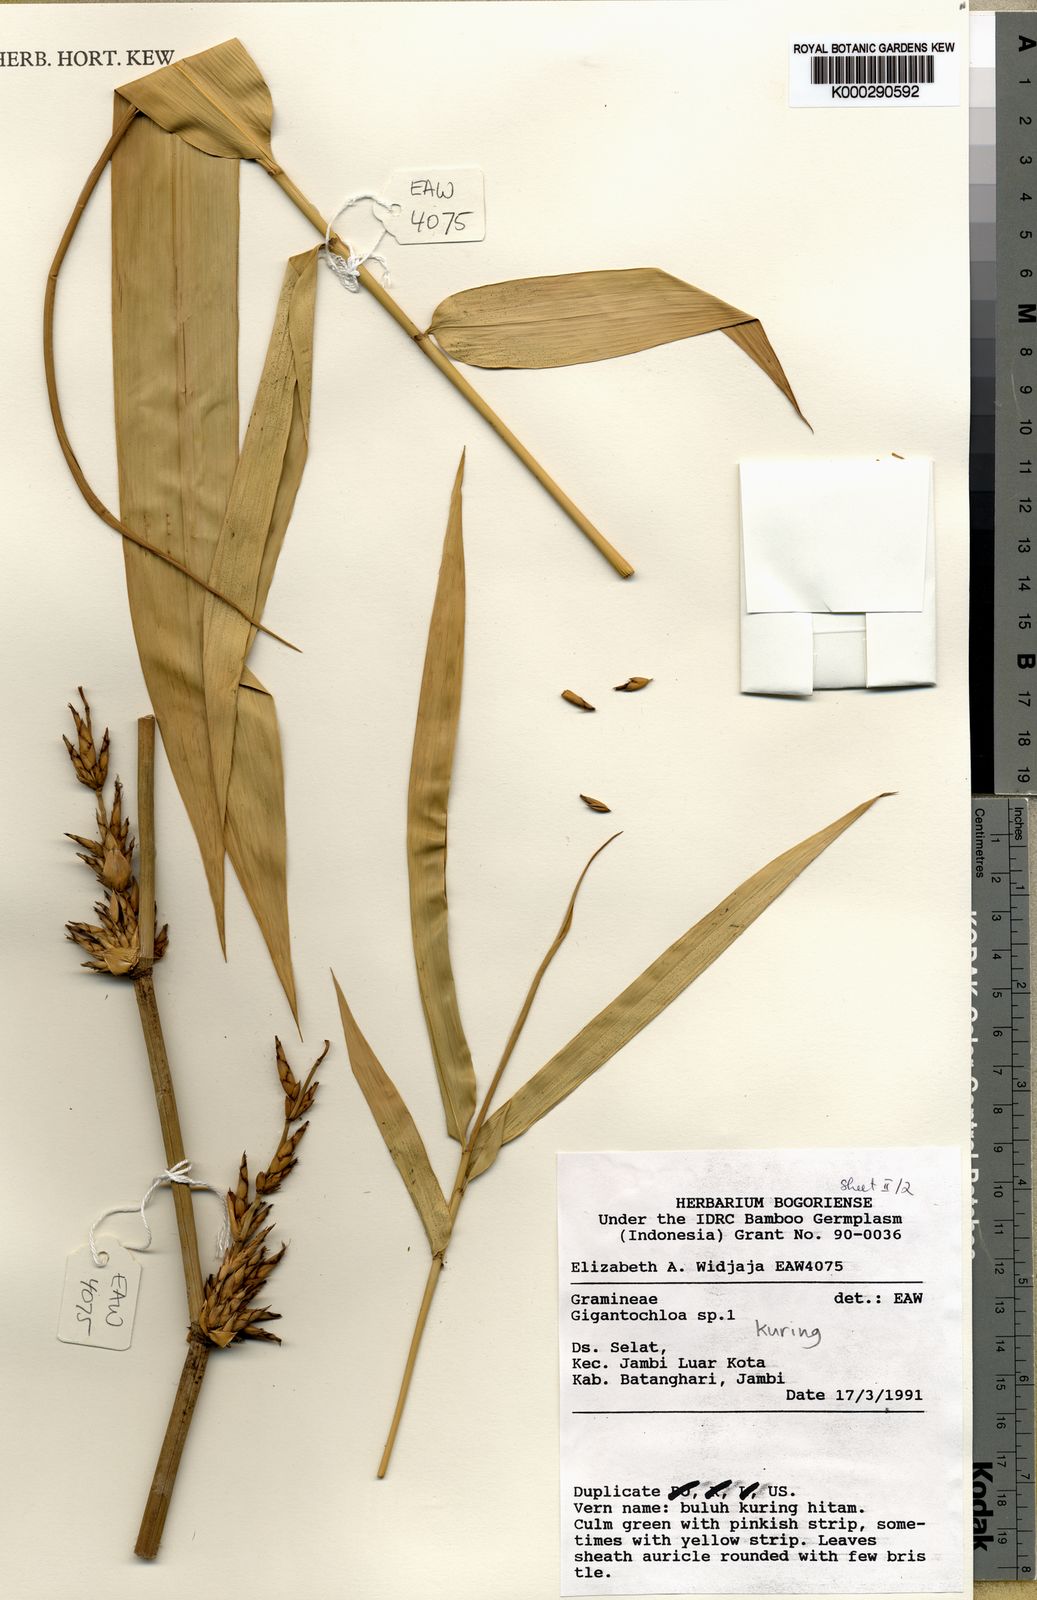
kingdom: Plantae
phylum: Tracheophyta
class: Liliopsida
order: Poales
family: Poaceae
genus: Gigantochloa
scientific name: Gigantochloa kuring
